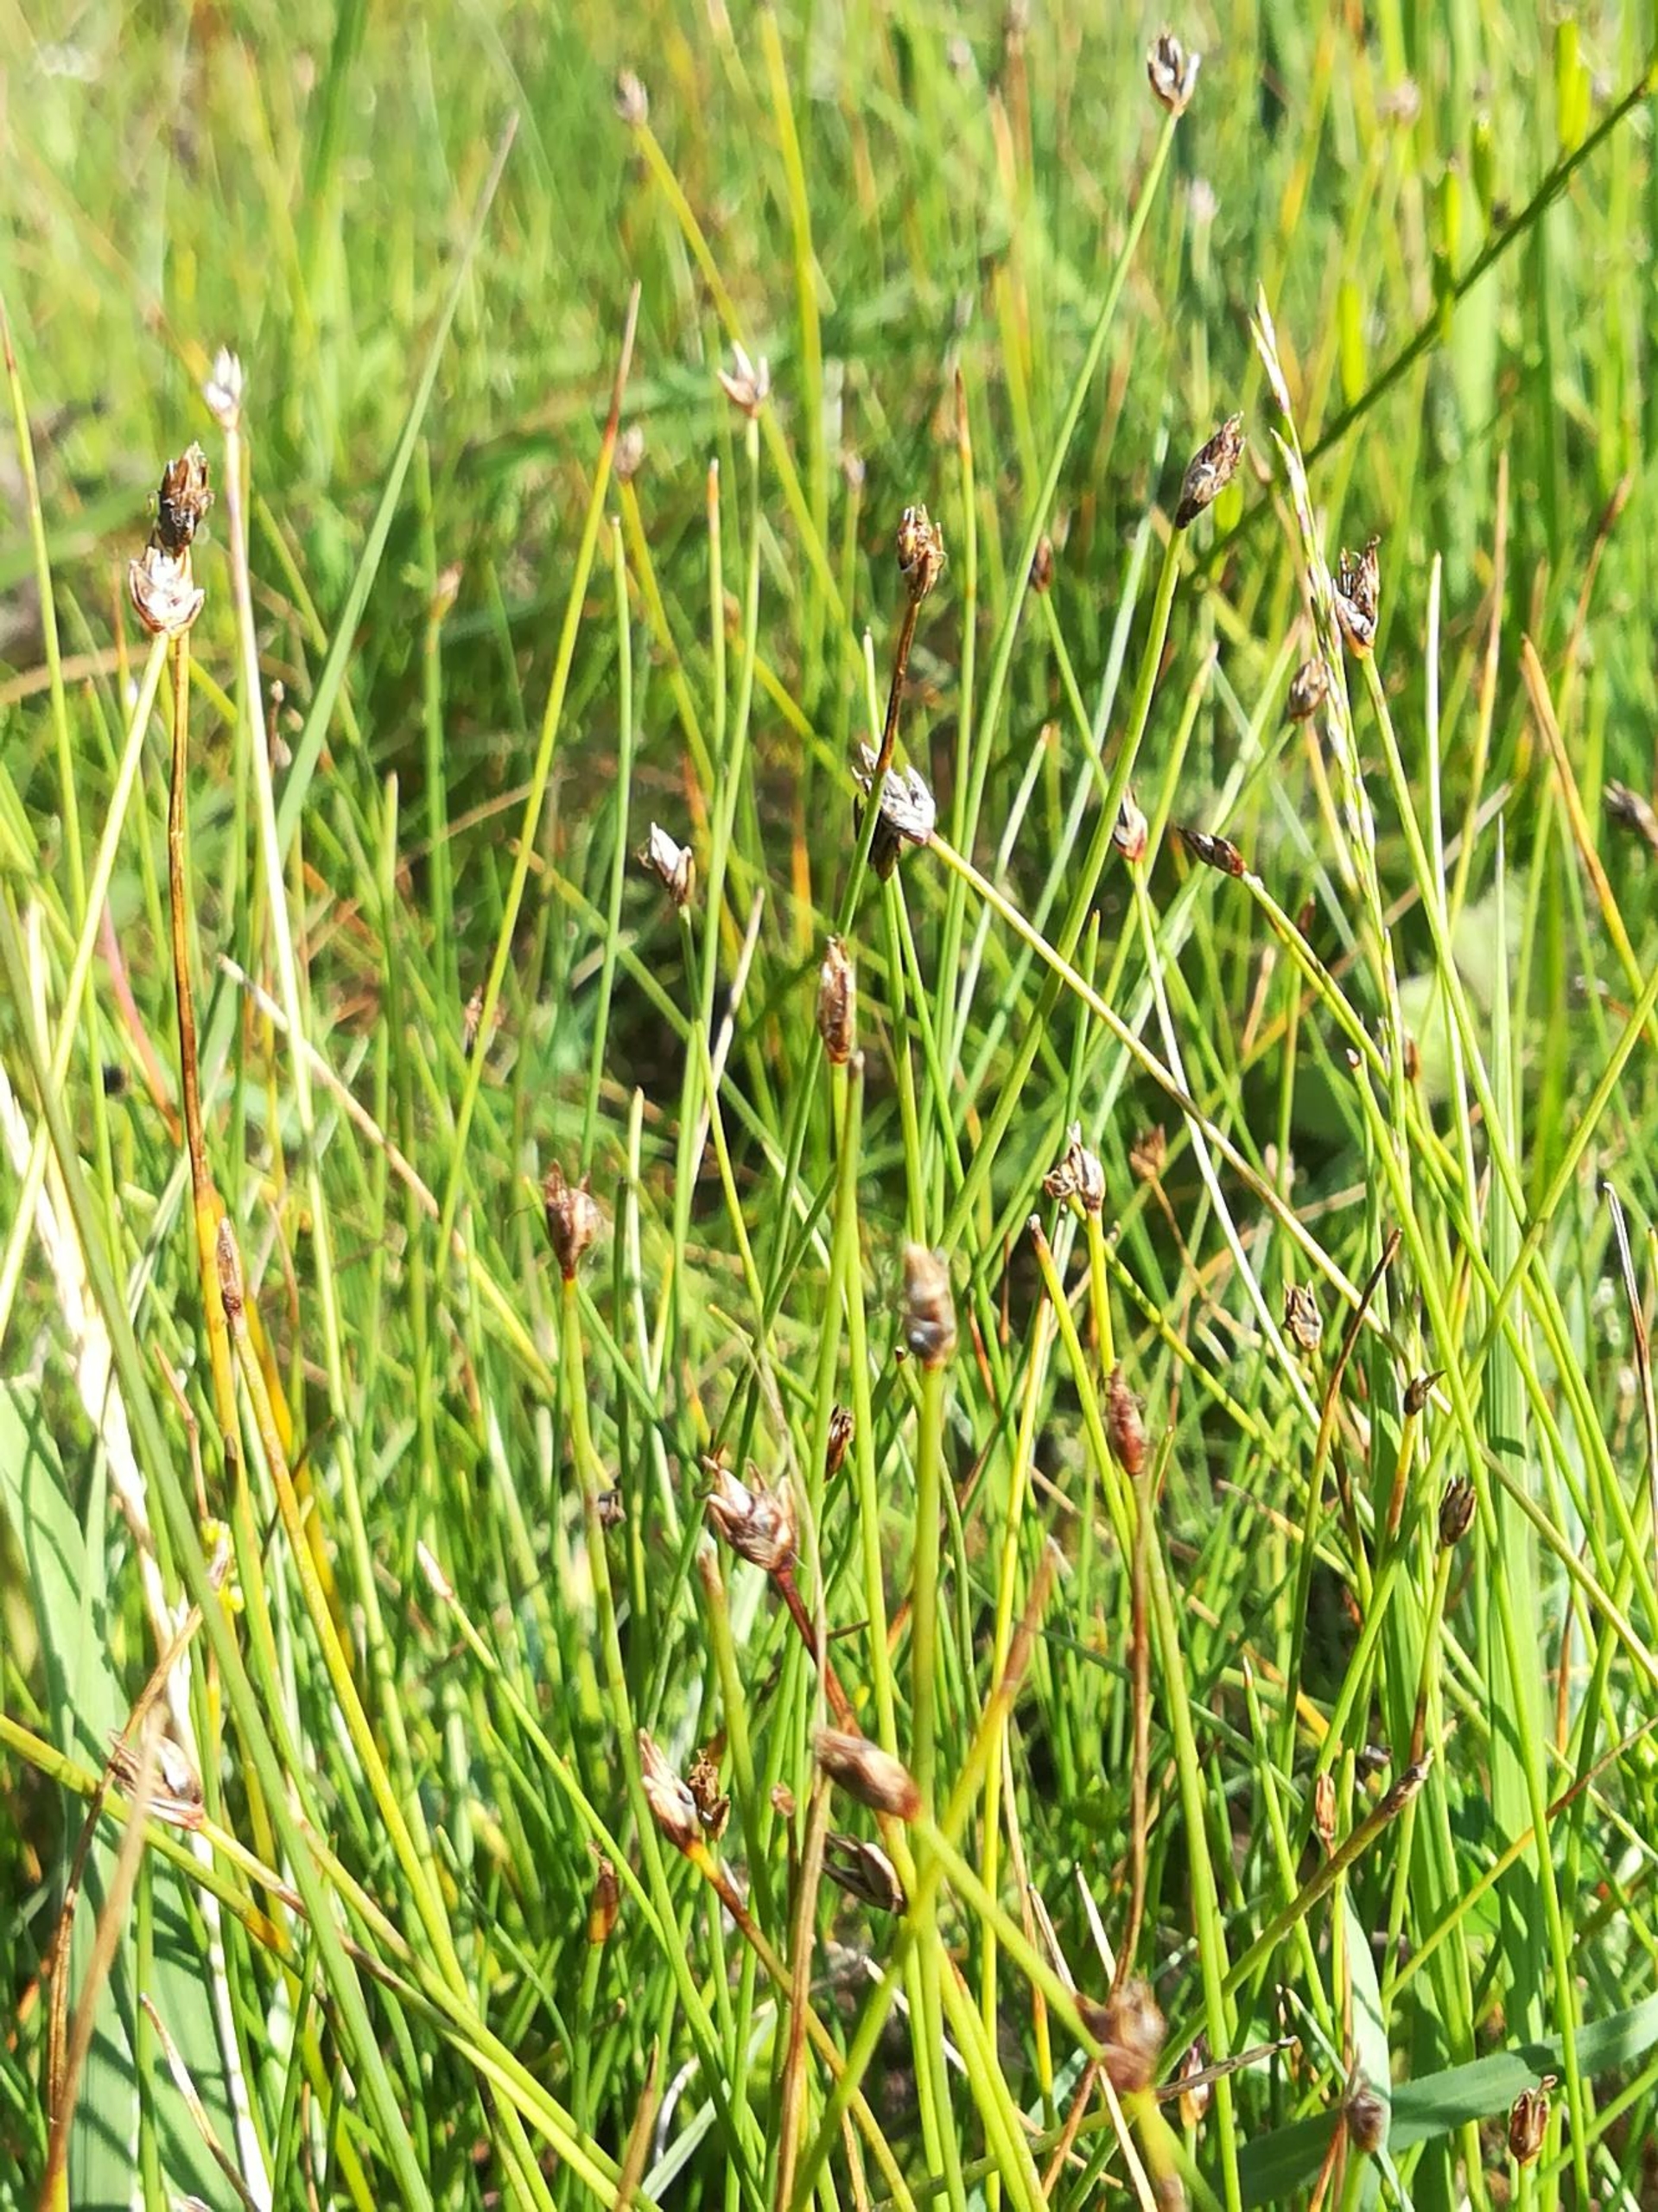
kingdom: Plantae
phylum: Tracheophyta
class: Liliopsida
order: Poales
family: Cyperaceae
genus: Eleocharis
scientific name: Eleocharis quinqueflora
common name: Fåblomstret kogleaks
